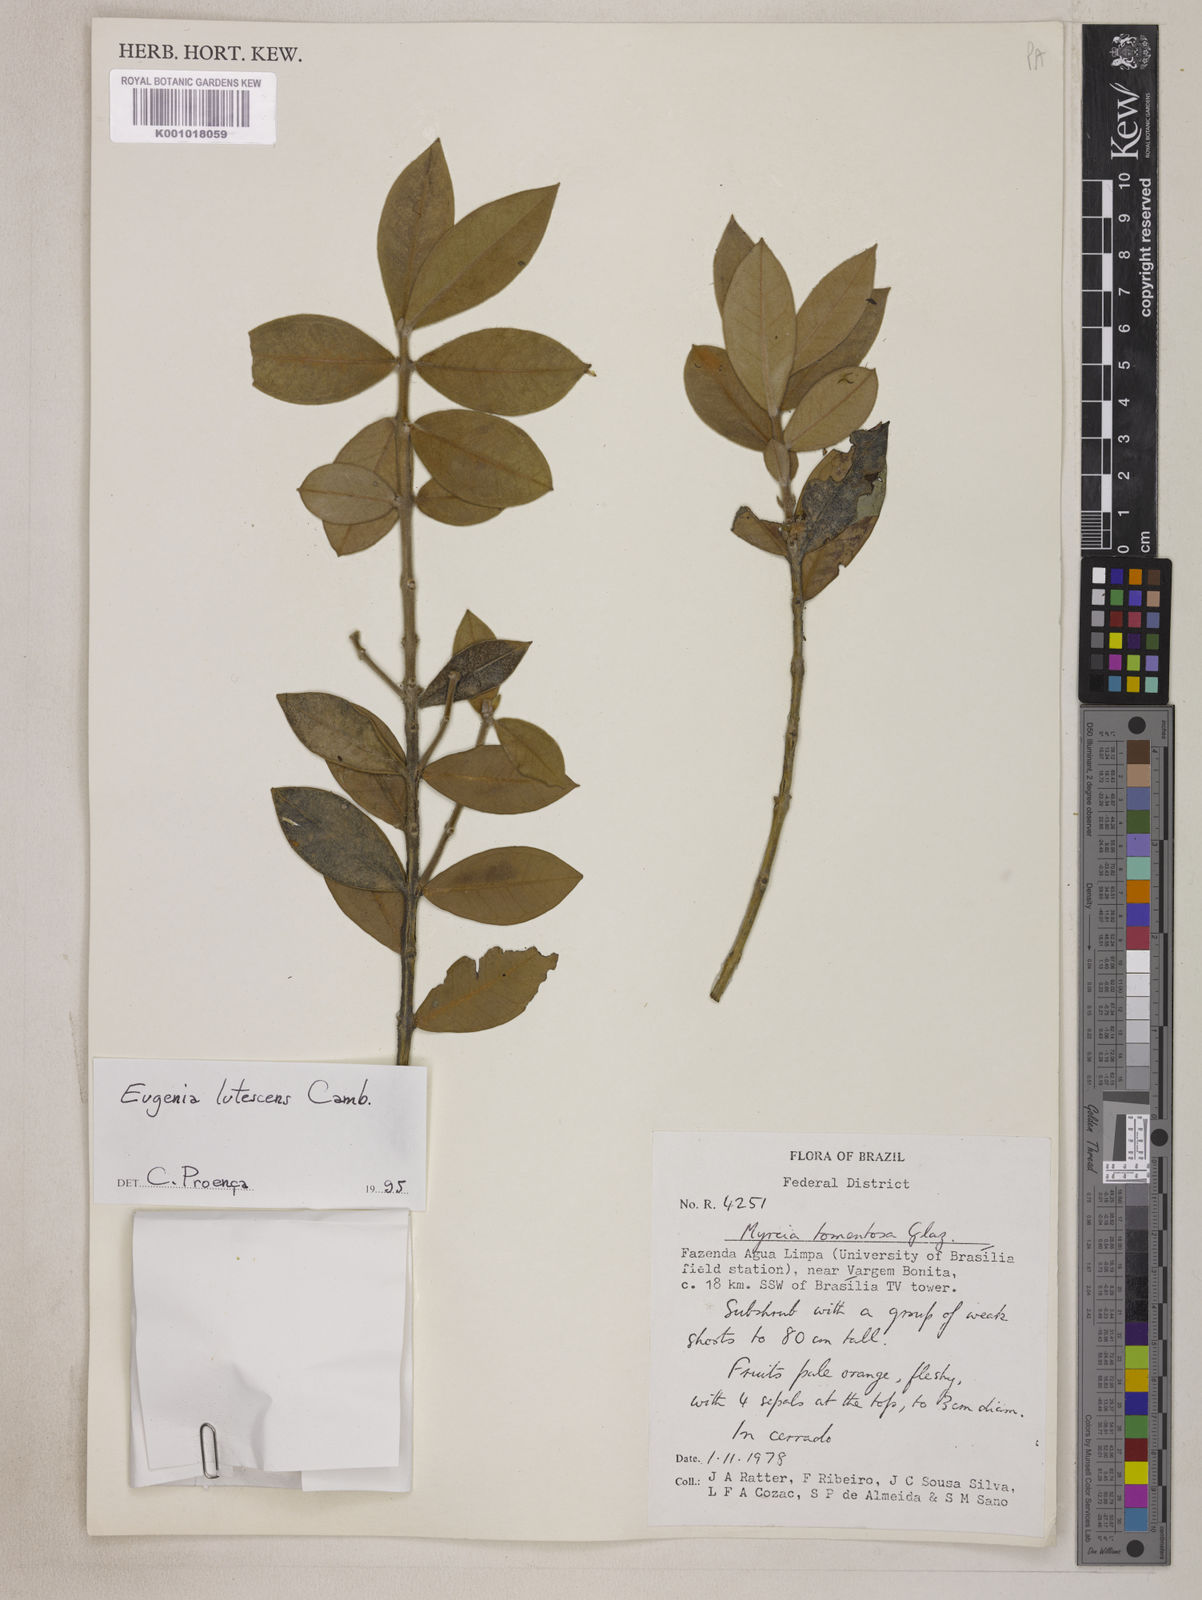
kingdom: Plantae
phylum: Tracheophyta
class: Magnoliopsida
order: Myrtales
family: Myrtaceae
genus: Eugenia
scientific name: Eugenia lutescens
